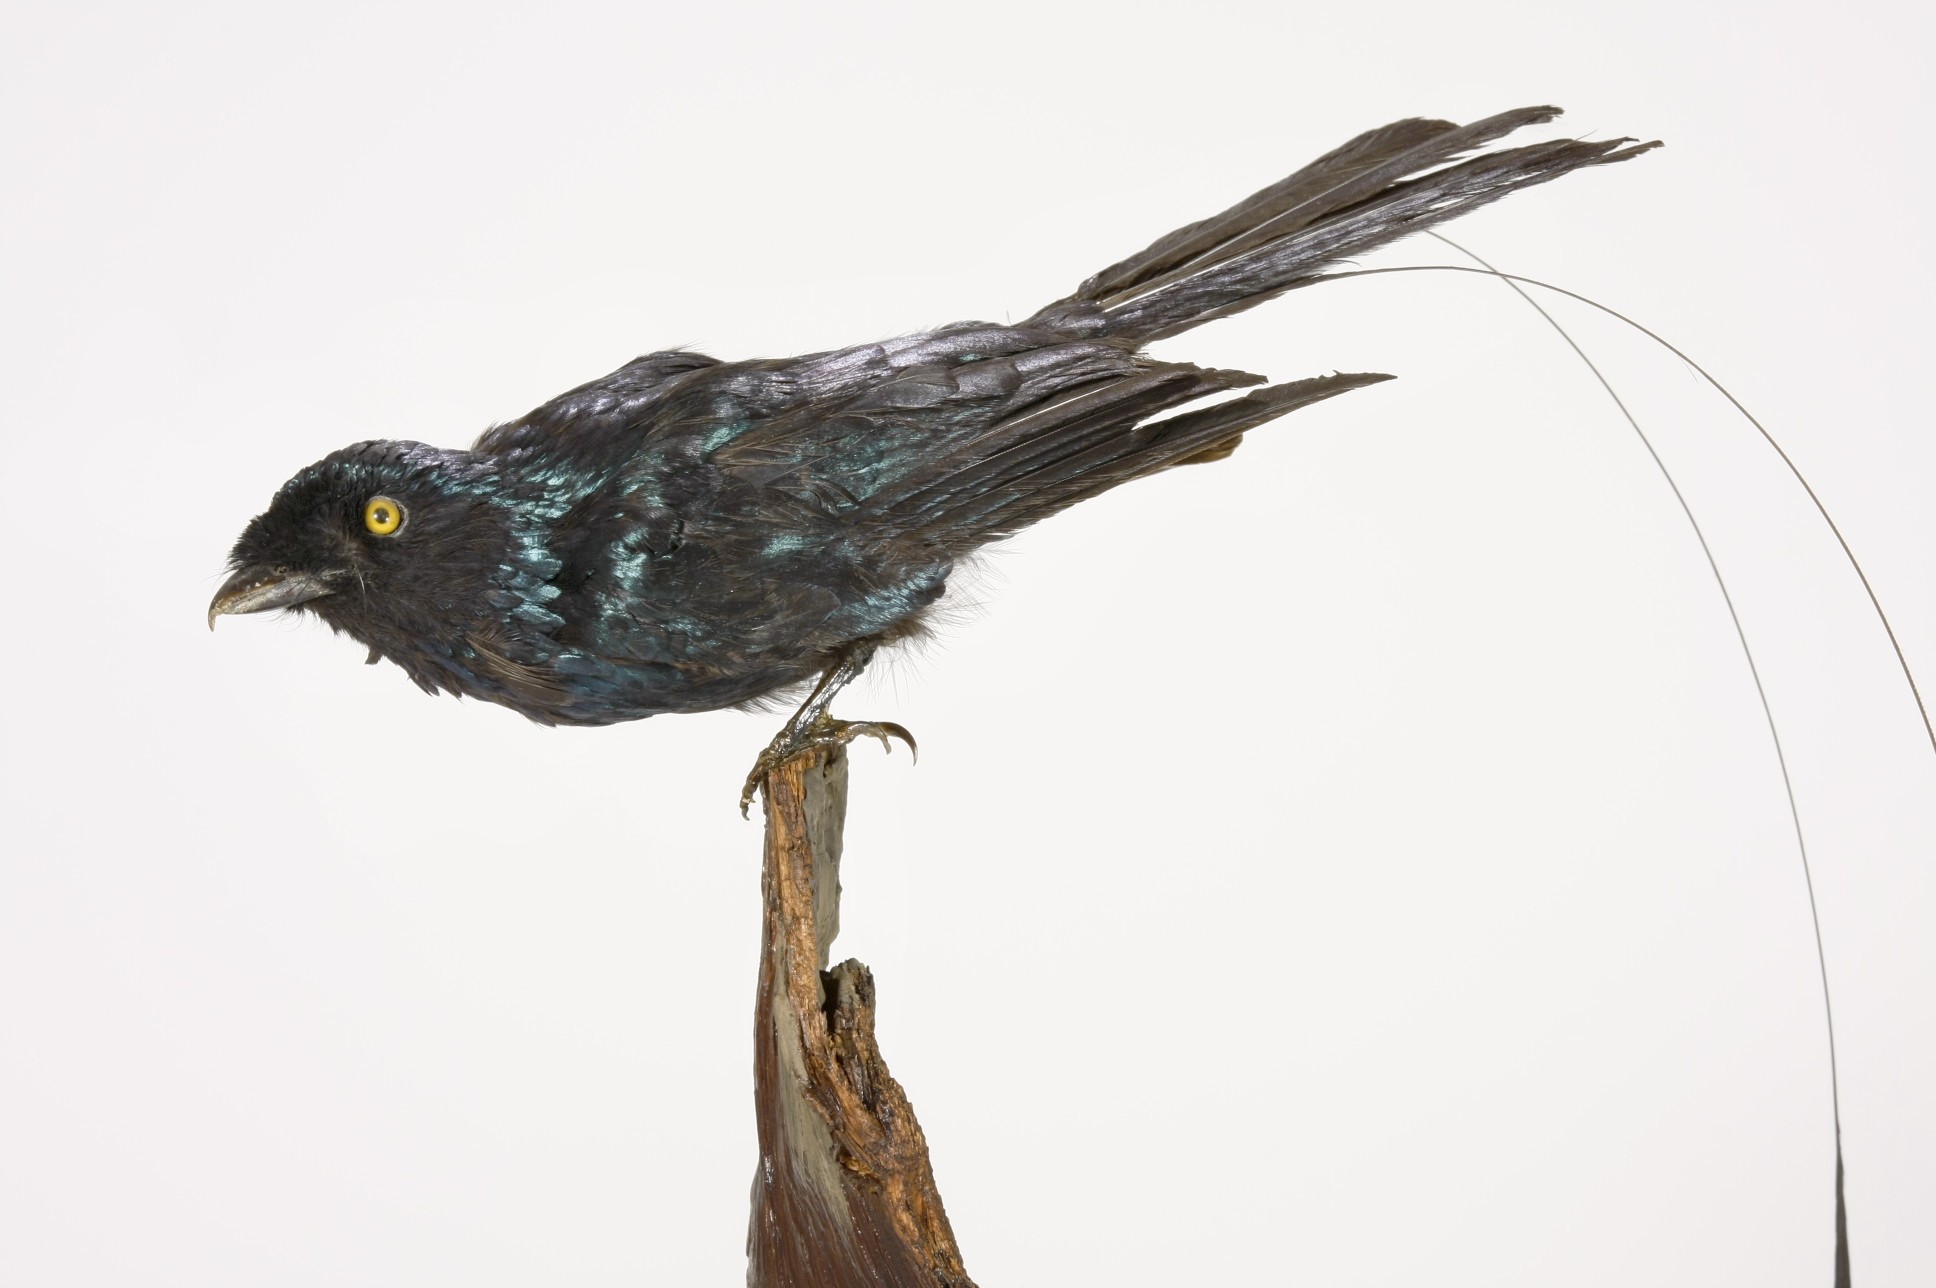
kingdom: Animalia
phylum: Chordata
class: Aves
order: Passeriformes
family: Dicruridae
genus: Dicrurus
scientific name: Dicrurus remifer
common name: Lesser racket-tailed drongo
